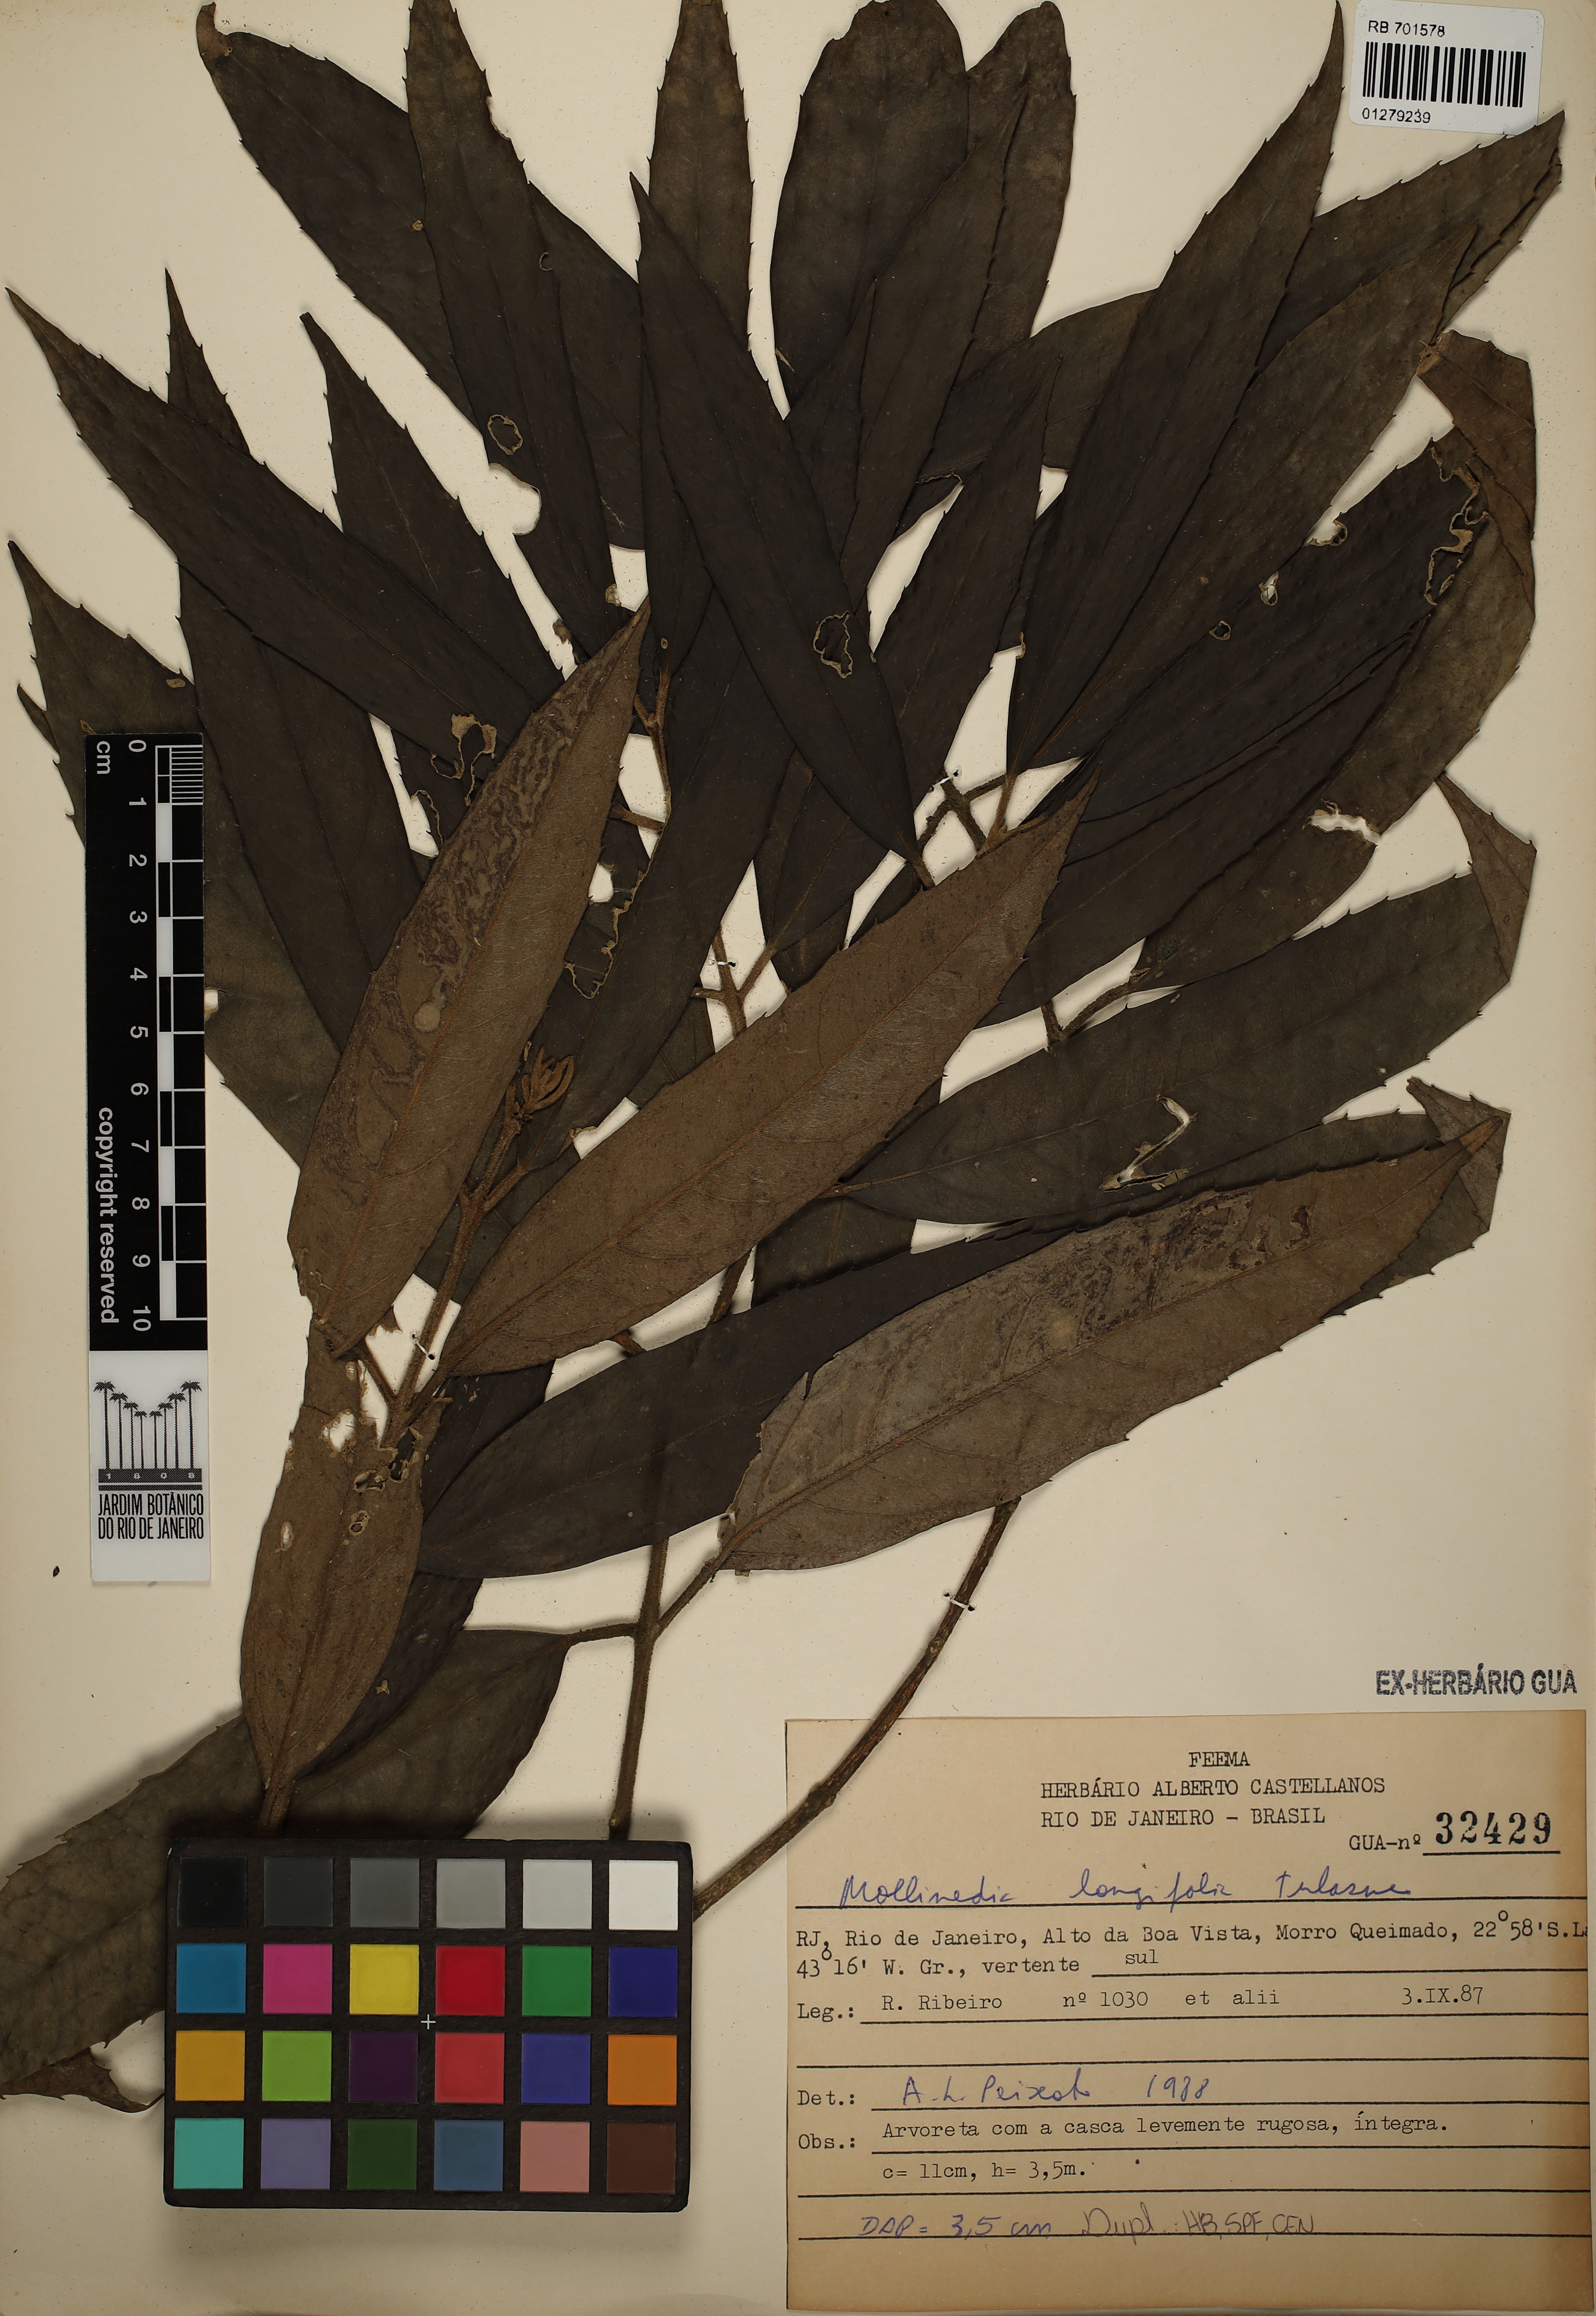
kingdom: Plantae
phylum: Tracheophyta
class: Magnoliopsida
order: Laurales
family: Monimiaceae
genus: Mollinedia
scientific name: Mollinedia longifolia
